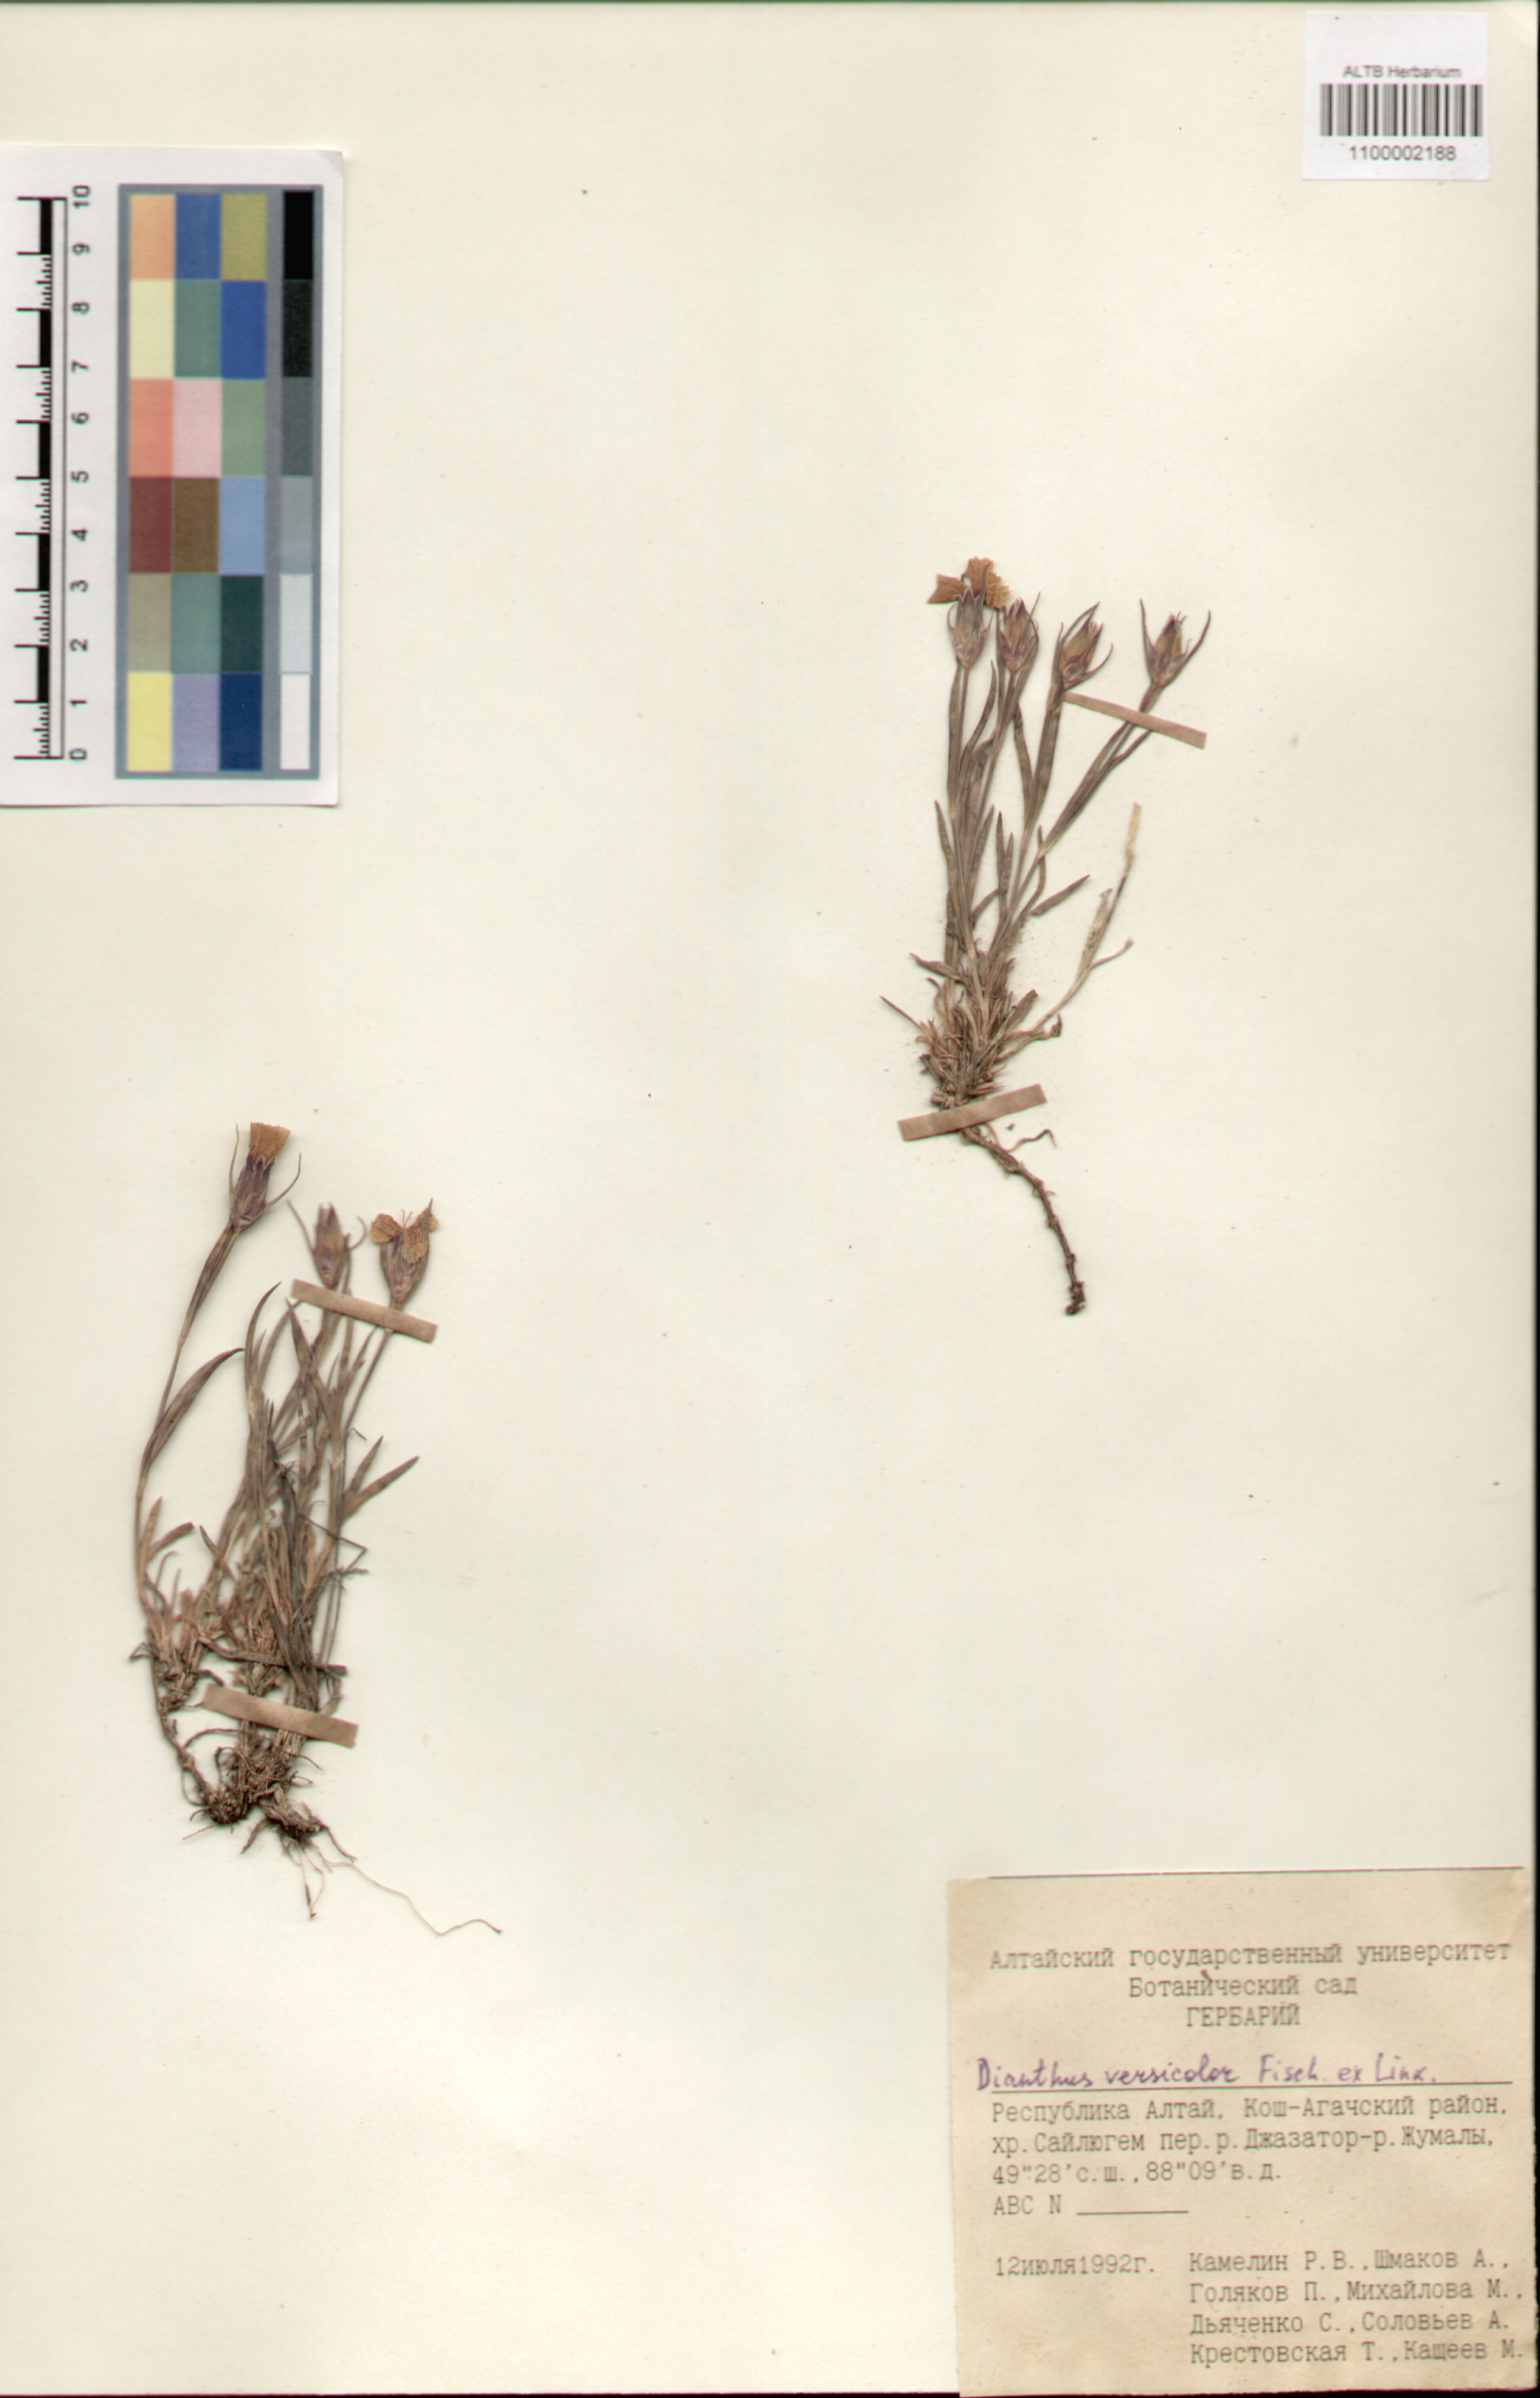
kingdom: Plantae
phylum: Tracheophyta
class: Magnoliopsida
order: Caryophyllales
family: Caryophyllaceae
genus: Dianthus
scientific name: Dianthus chinensis
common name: Rainbow pink
